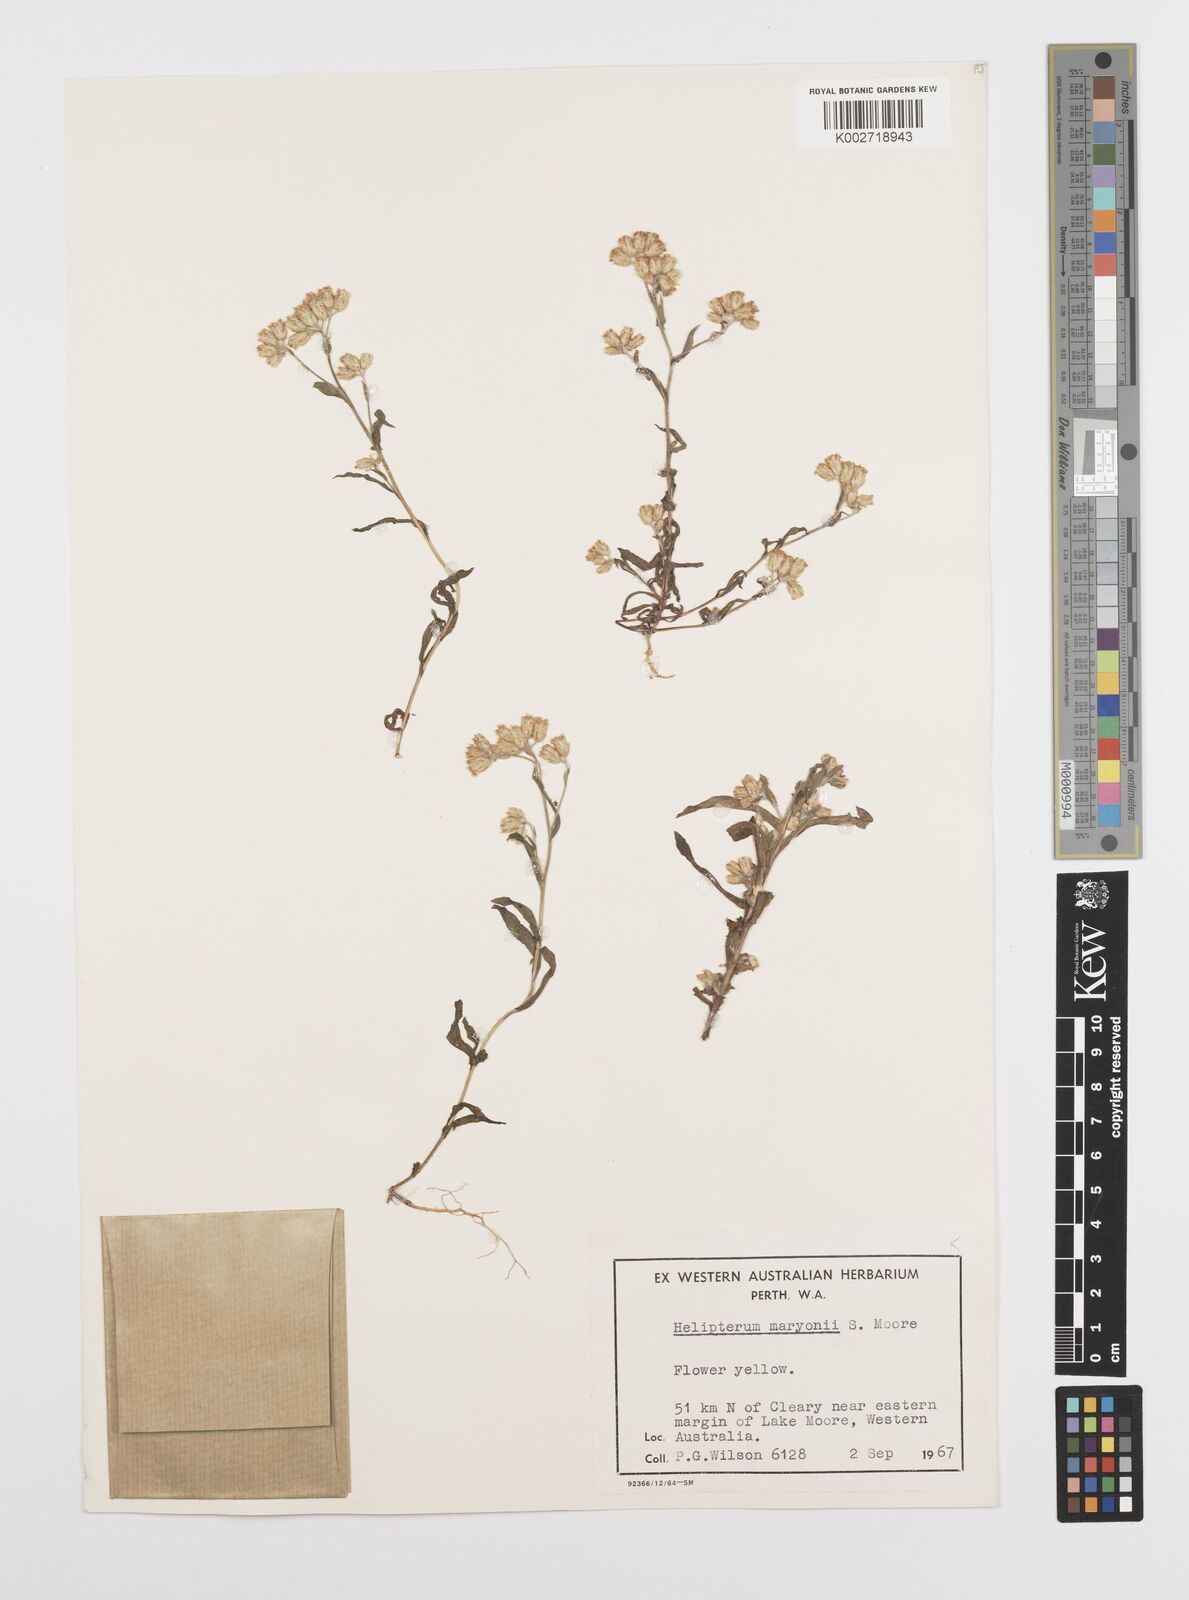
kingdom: Plantae
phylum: Tracheophyta
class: Magnoliopsida
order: Asterales
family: Asteraceae
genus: Rhodanthe
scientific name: Rhodanthe maryonii
